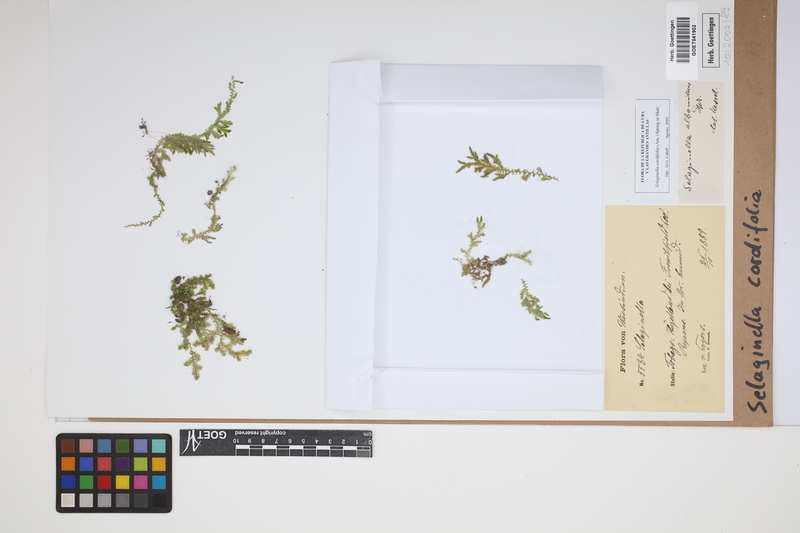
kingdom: Plantae
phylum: Tracheophyta
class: Lycopodiopsida
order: Selaginellales
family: Selaginellaceae
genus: Selaginella
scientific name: Selaginella cordifolia
